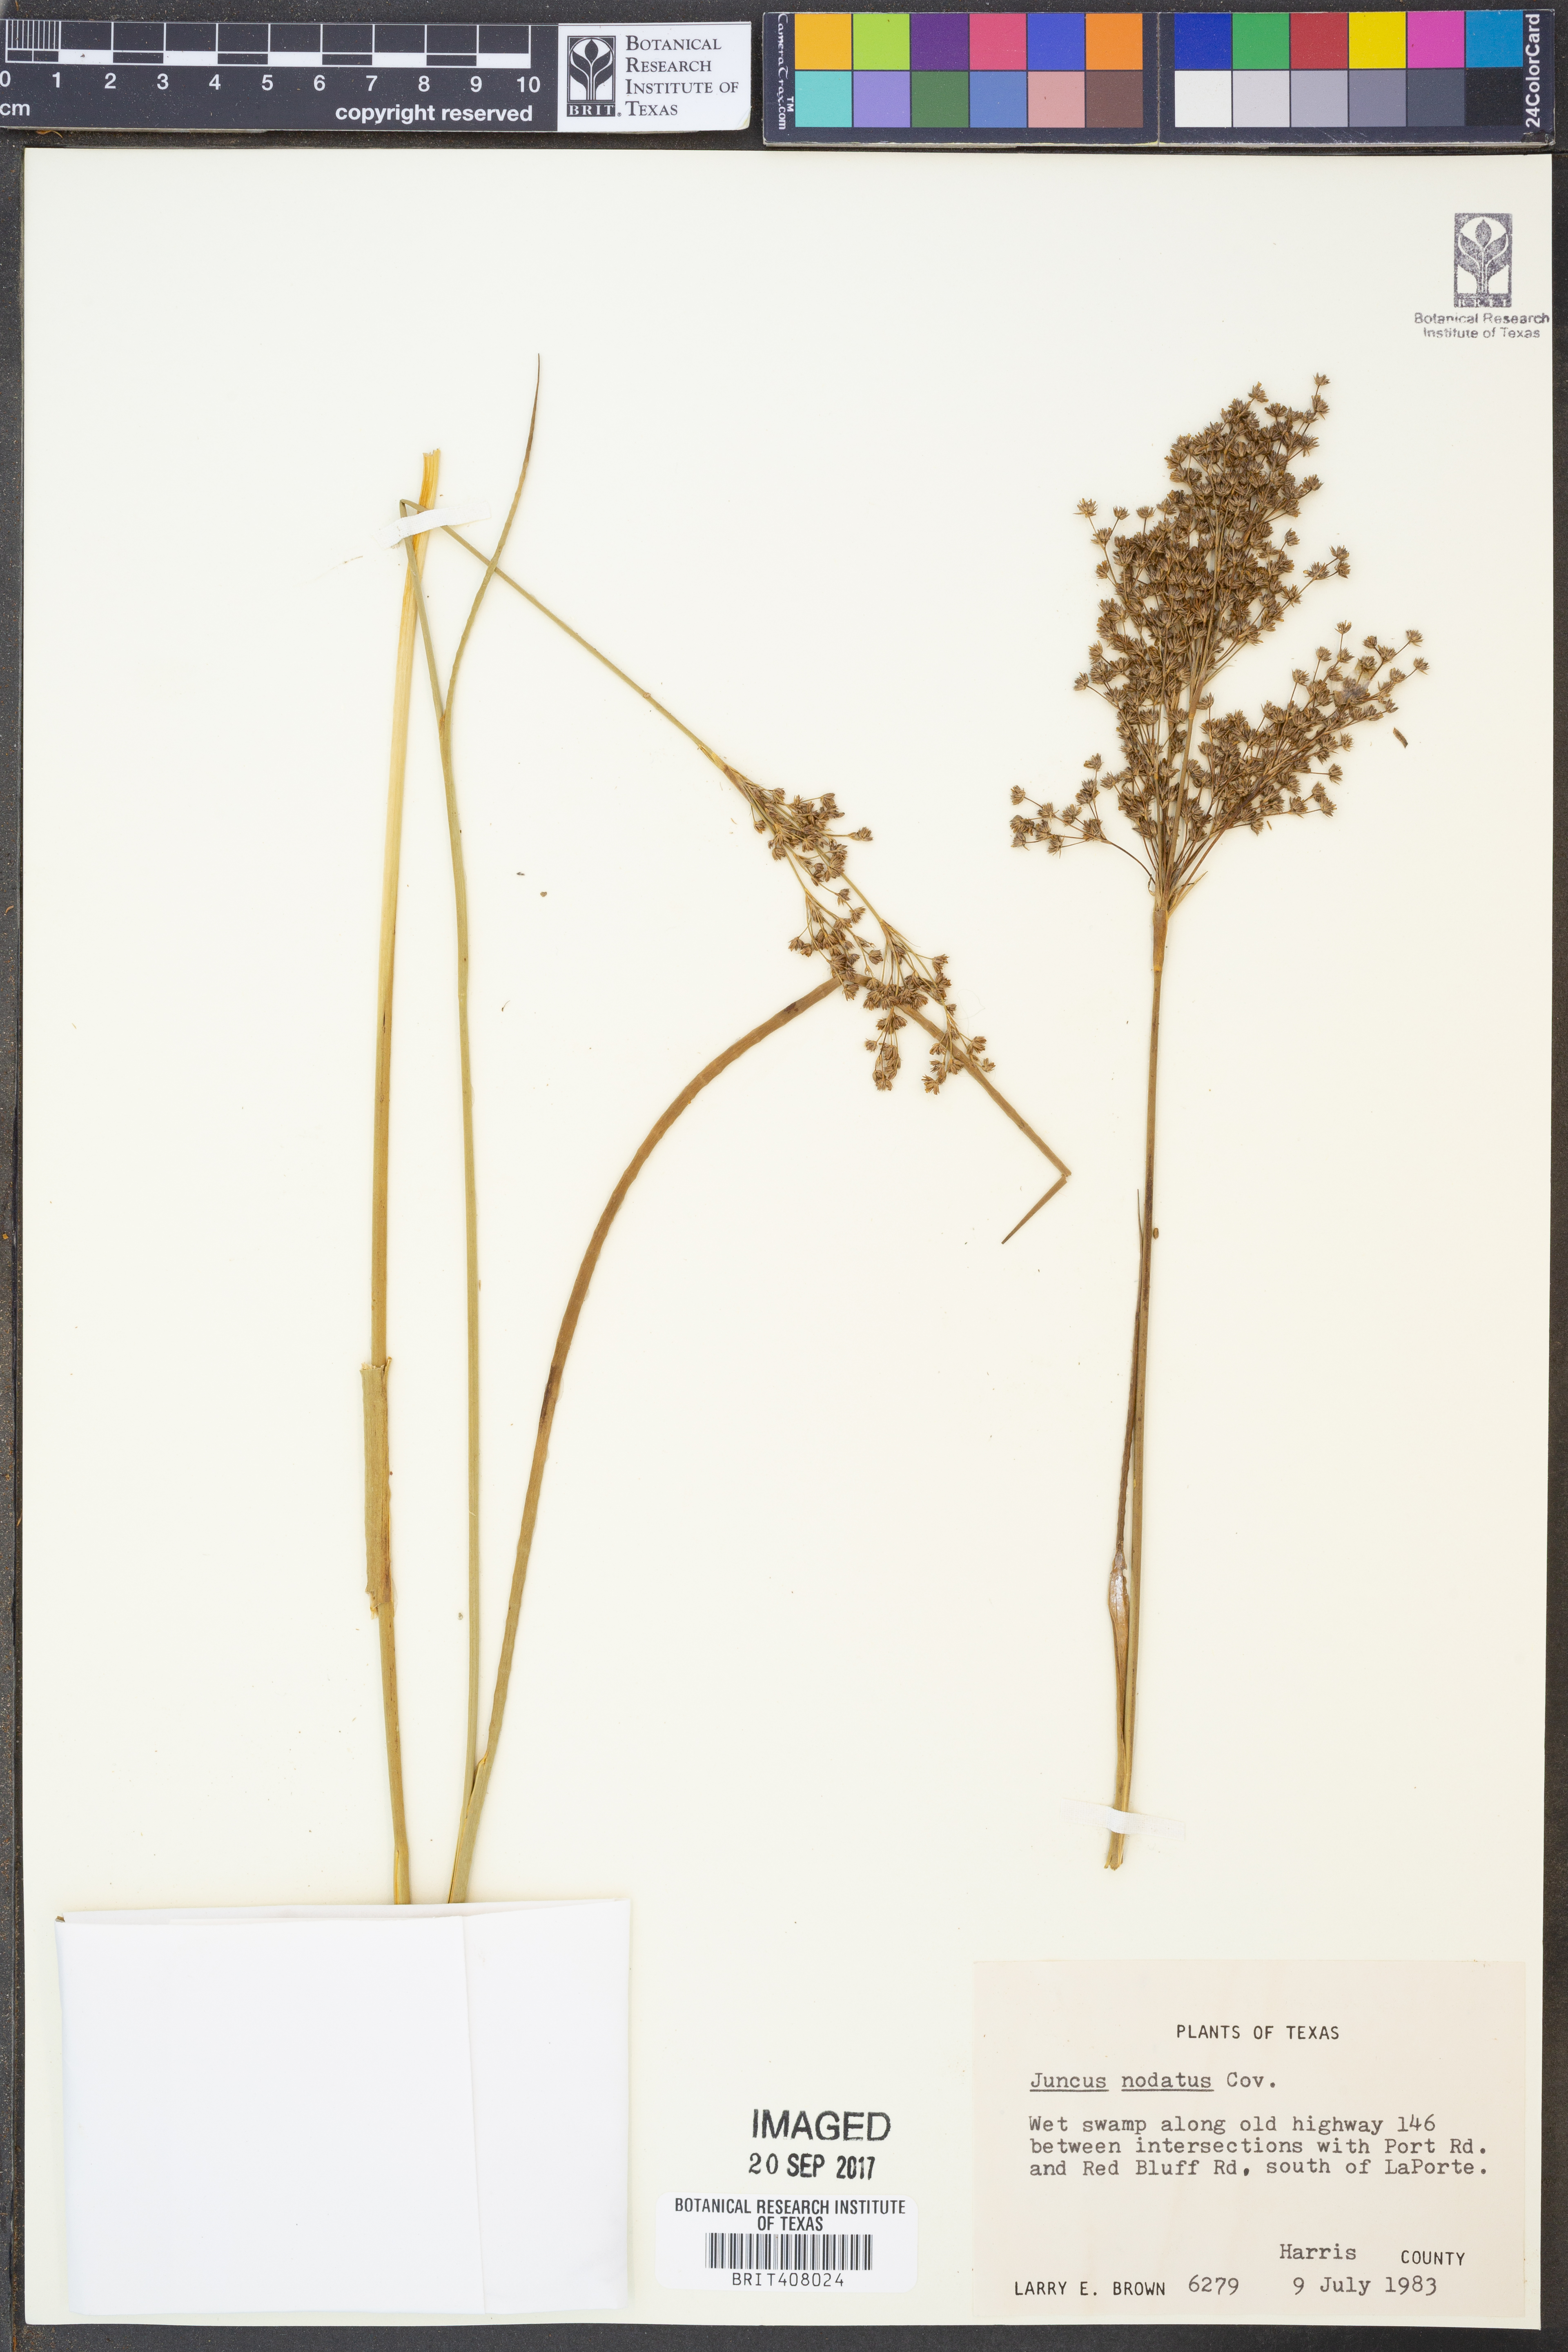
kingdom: Plantae
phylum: Tracheophyta
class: Liliopsida
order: Poales
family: Juncaceae
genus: Juncus
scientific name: Juncus nodatus
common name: Stout rush
